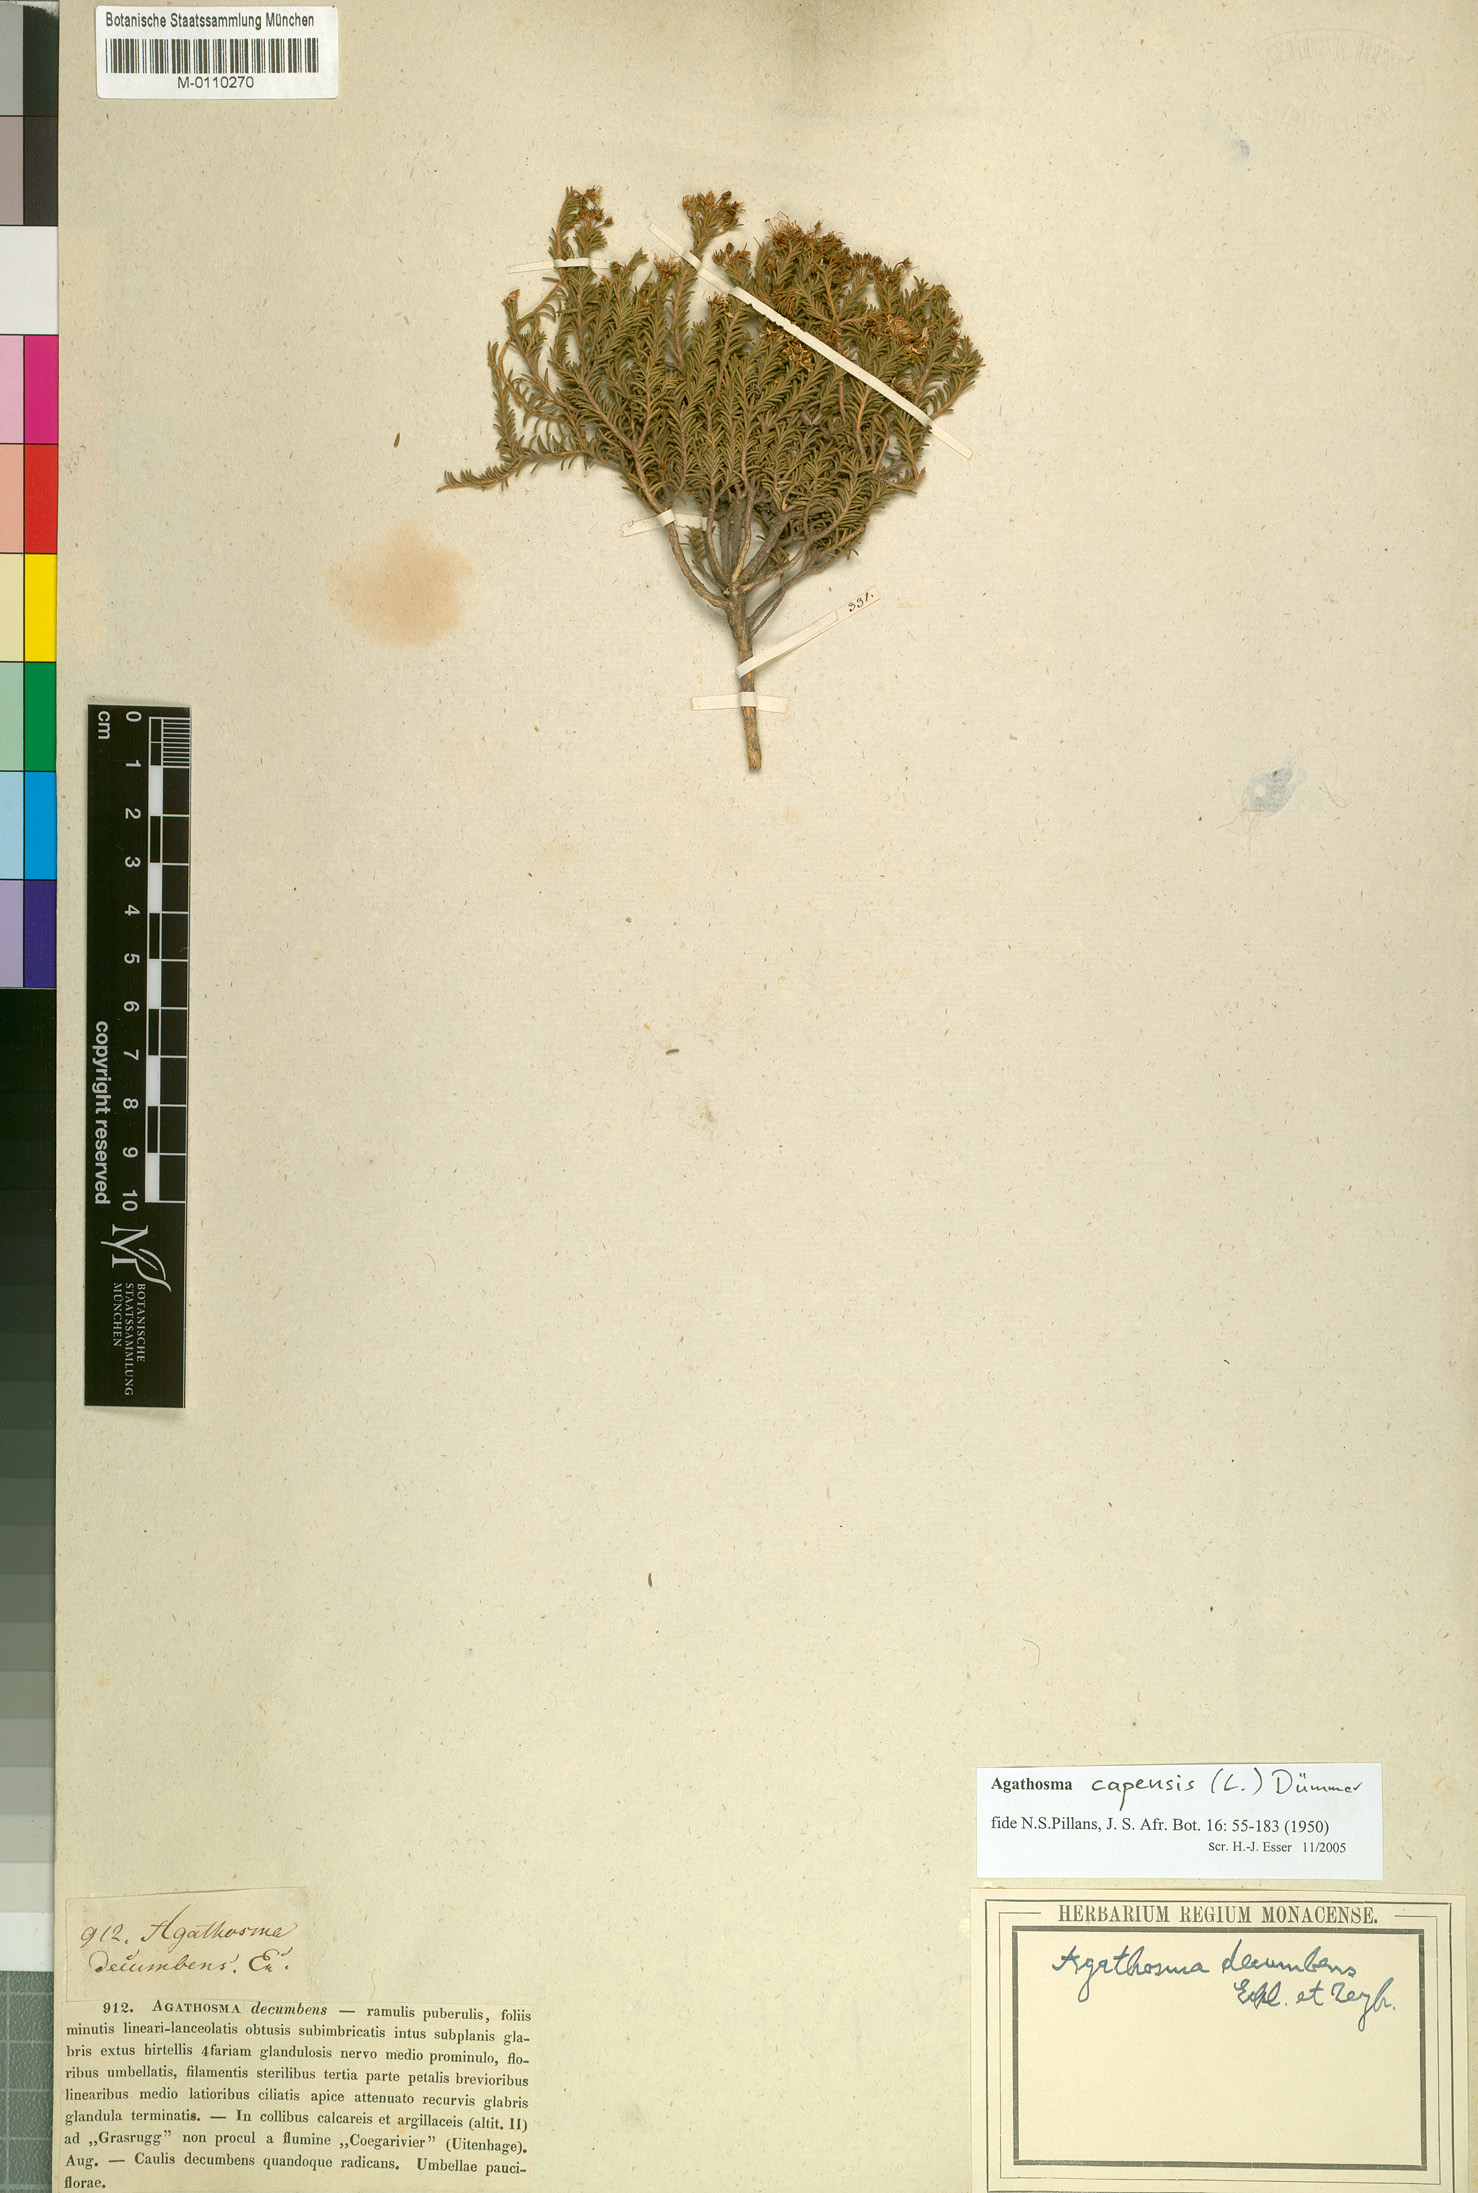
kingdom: Plantae
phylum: Tracheophyta
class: Magnoliopsida
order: Sapindales
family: Rutaceae
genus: Agathosma
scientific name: Agathosma capensis
